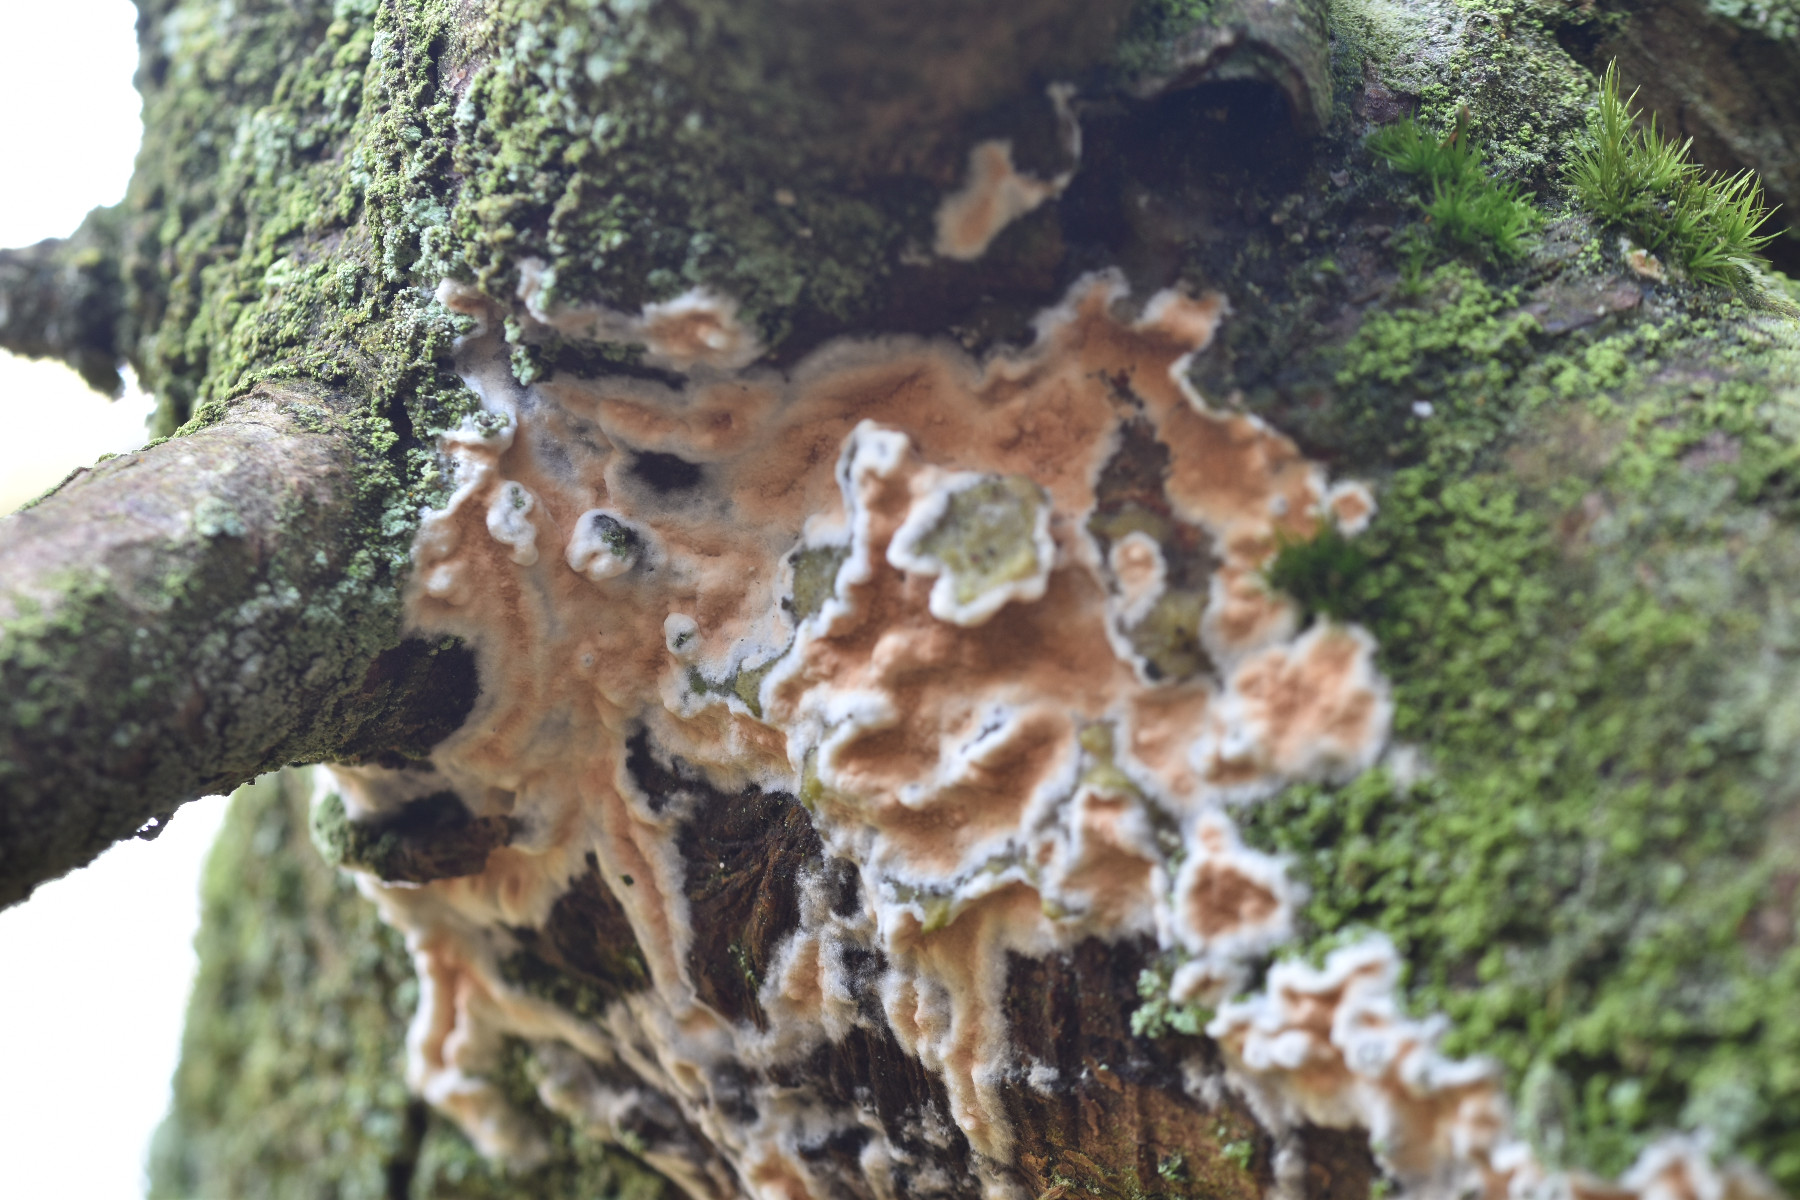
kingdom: Fungi
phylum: Basidiomycota
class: Agaricomycetes
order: Polyporales
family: Irpicaceae
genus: Meruliopsis
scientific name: Meruliopsis taxicola
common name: purpurbrun foldporesvamp
